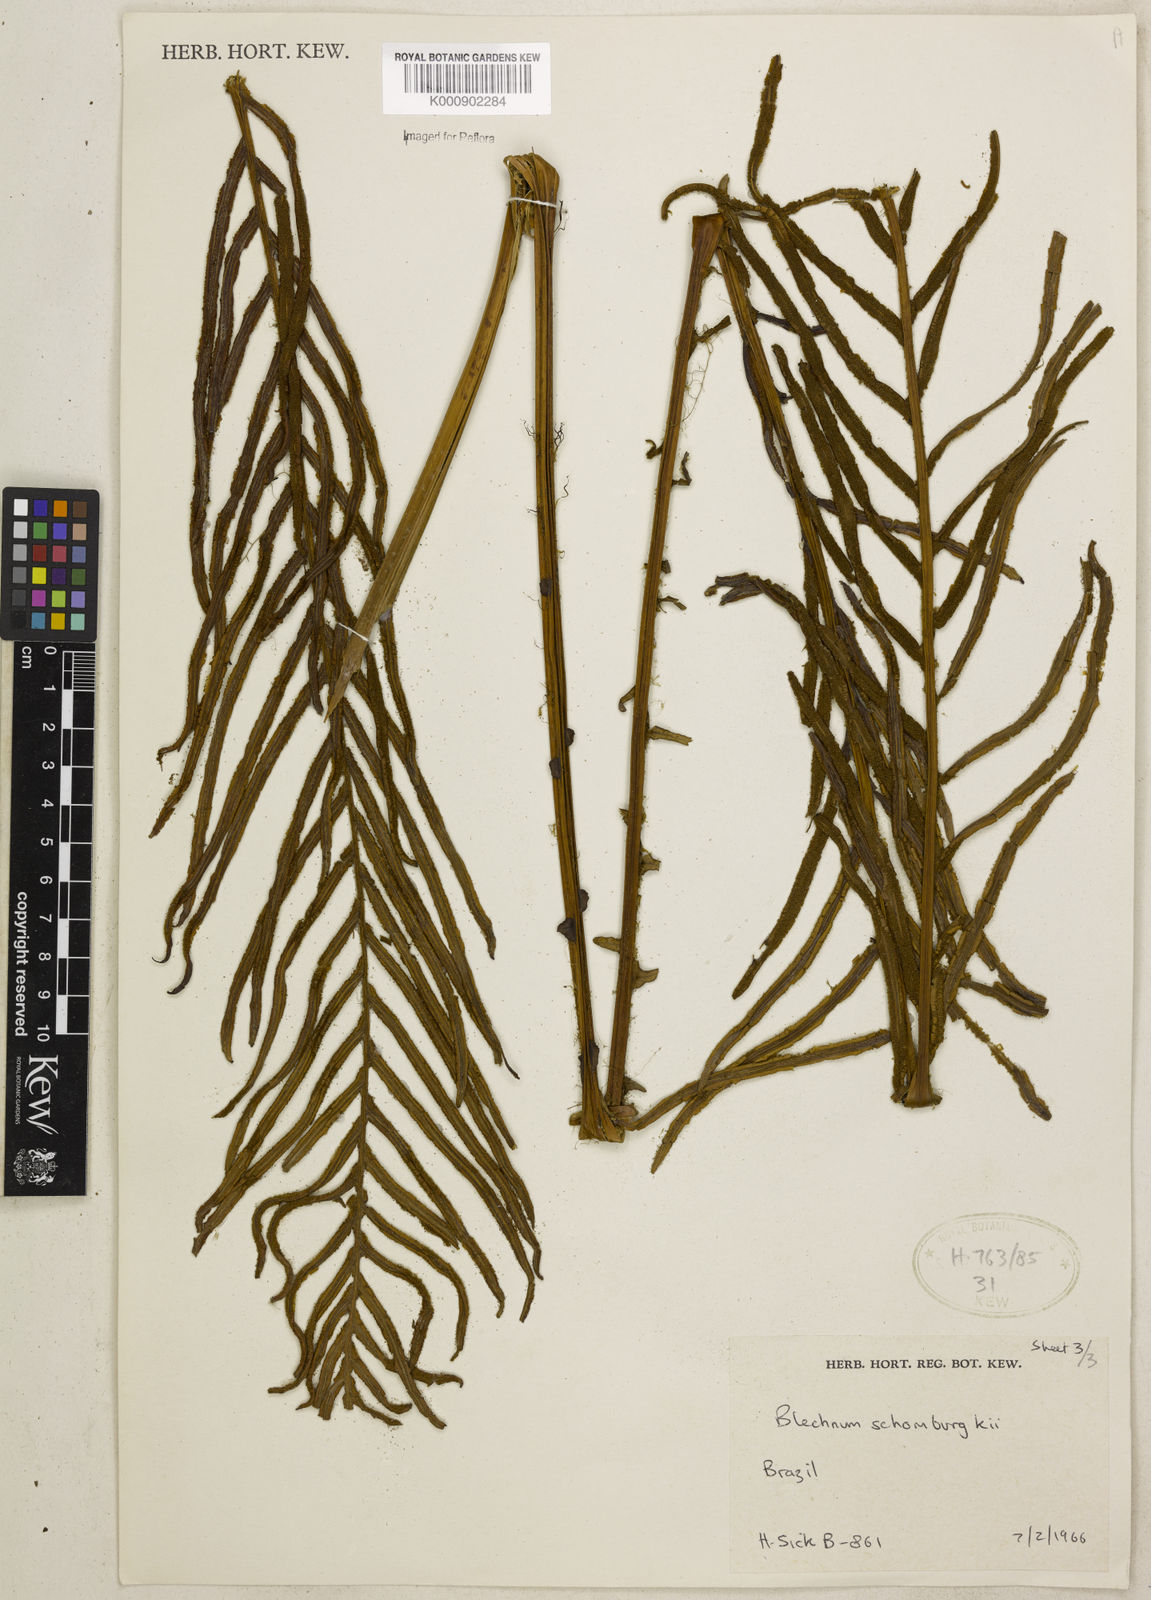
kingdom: Plantae
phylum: Tracheophyta
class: Polypodiopsida
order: Polypodiales
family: Blechnaceae
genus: Lomaria
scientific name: Lomaria spannagelii
